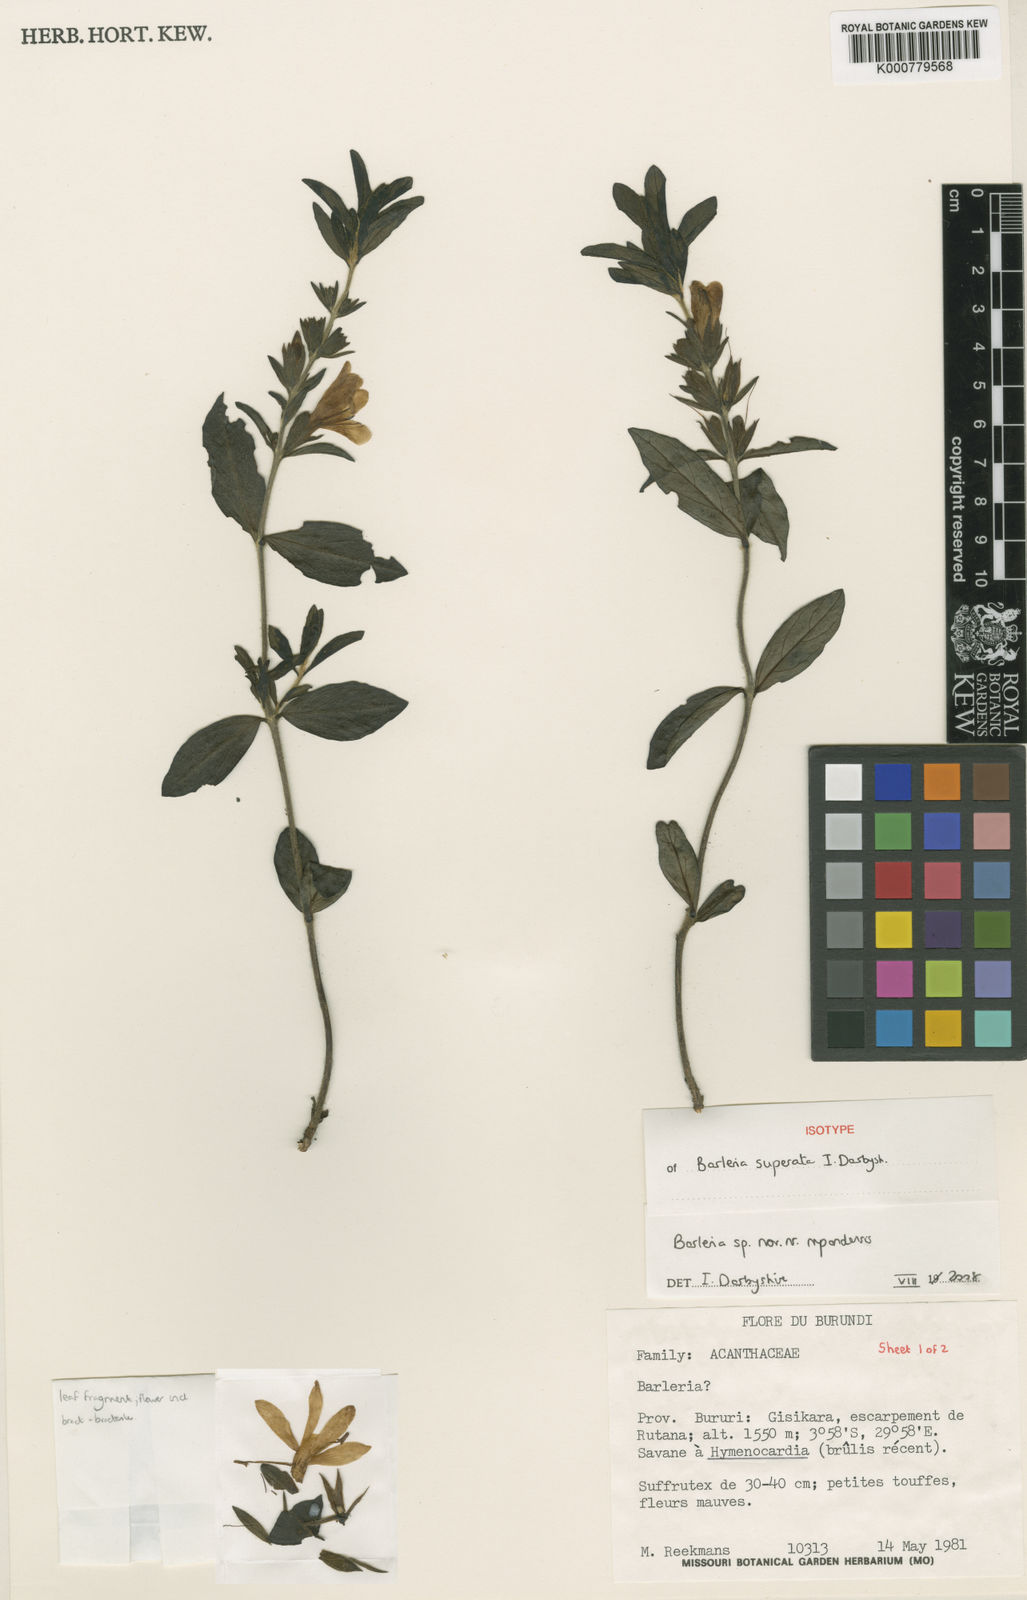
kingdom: Plantae
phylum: Tracheophyta
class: Magnoliopsida
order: Lamiales
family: Acanthaceae
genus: Barleria
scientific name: Barleria superata
